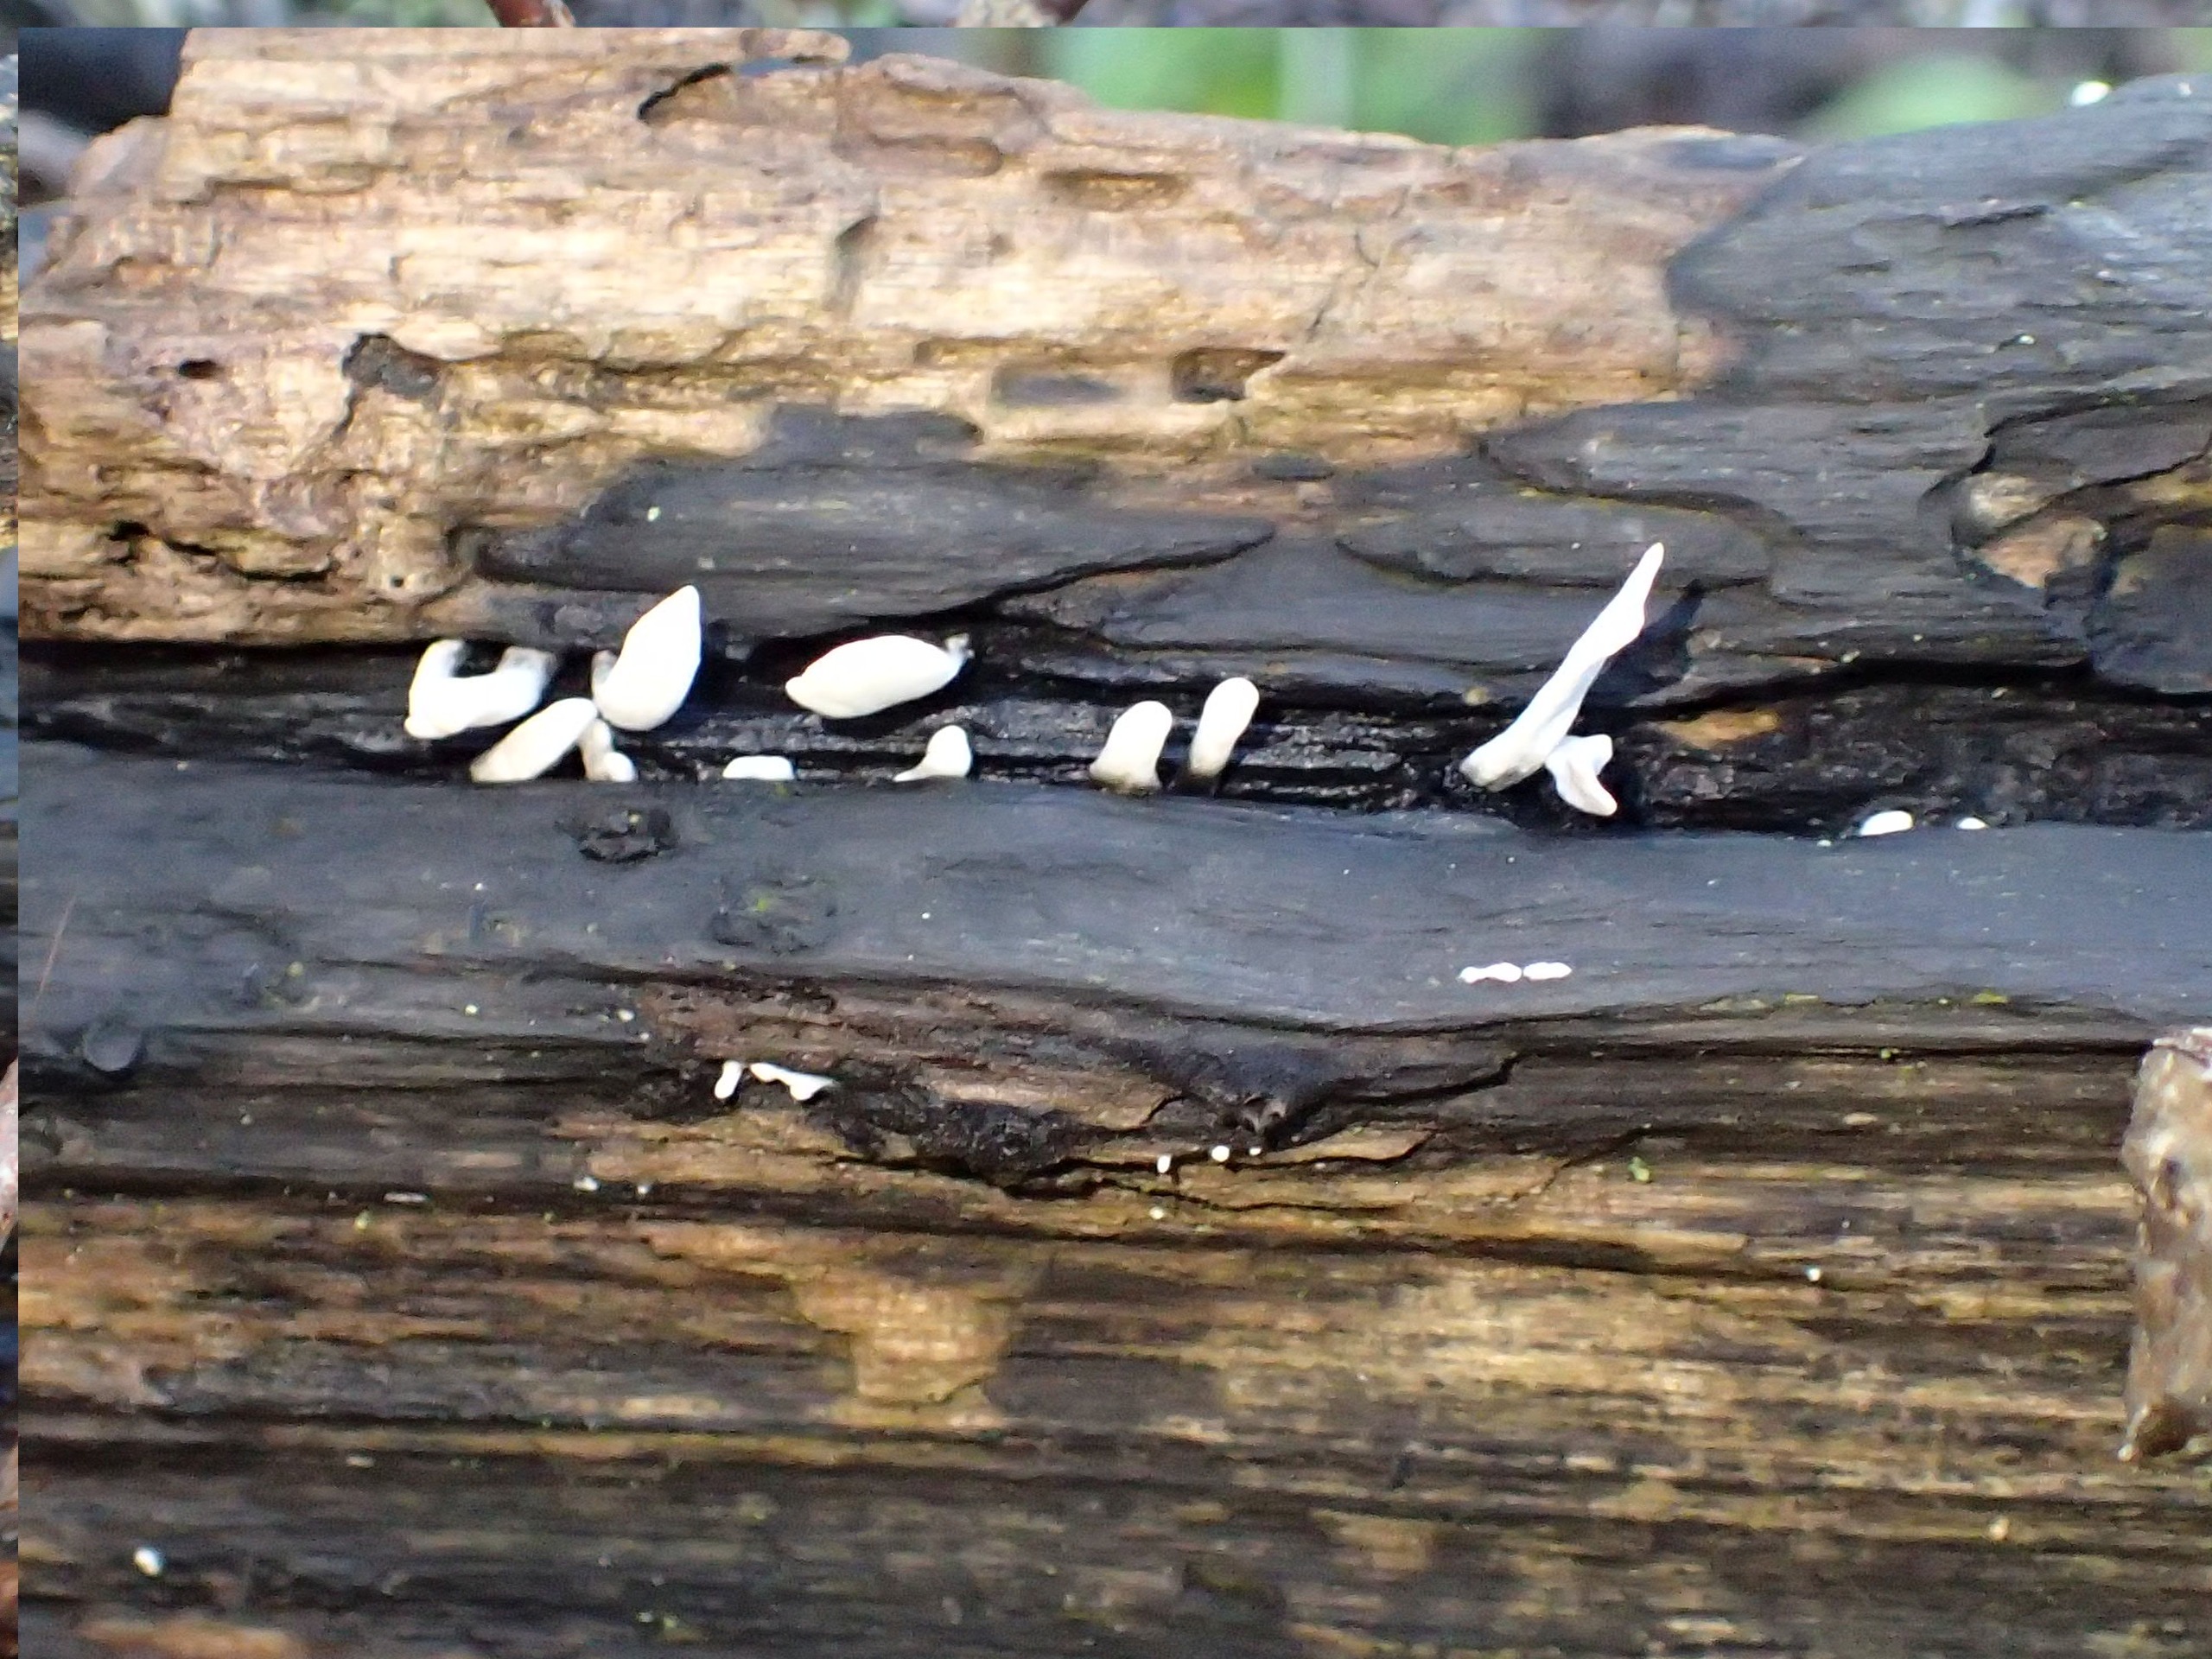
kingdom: Fungi
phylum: Ascomycota
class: Sordariomycetes
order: Xylariales
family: Xylariaceae
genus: Xylaria
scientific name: Xylaria hypoxylon
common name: Grenet stødsvamp
